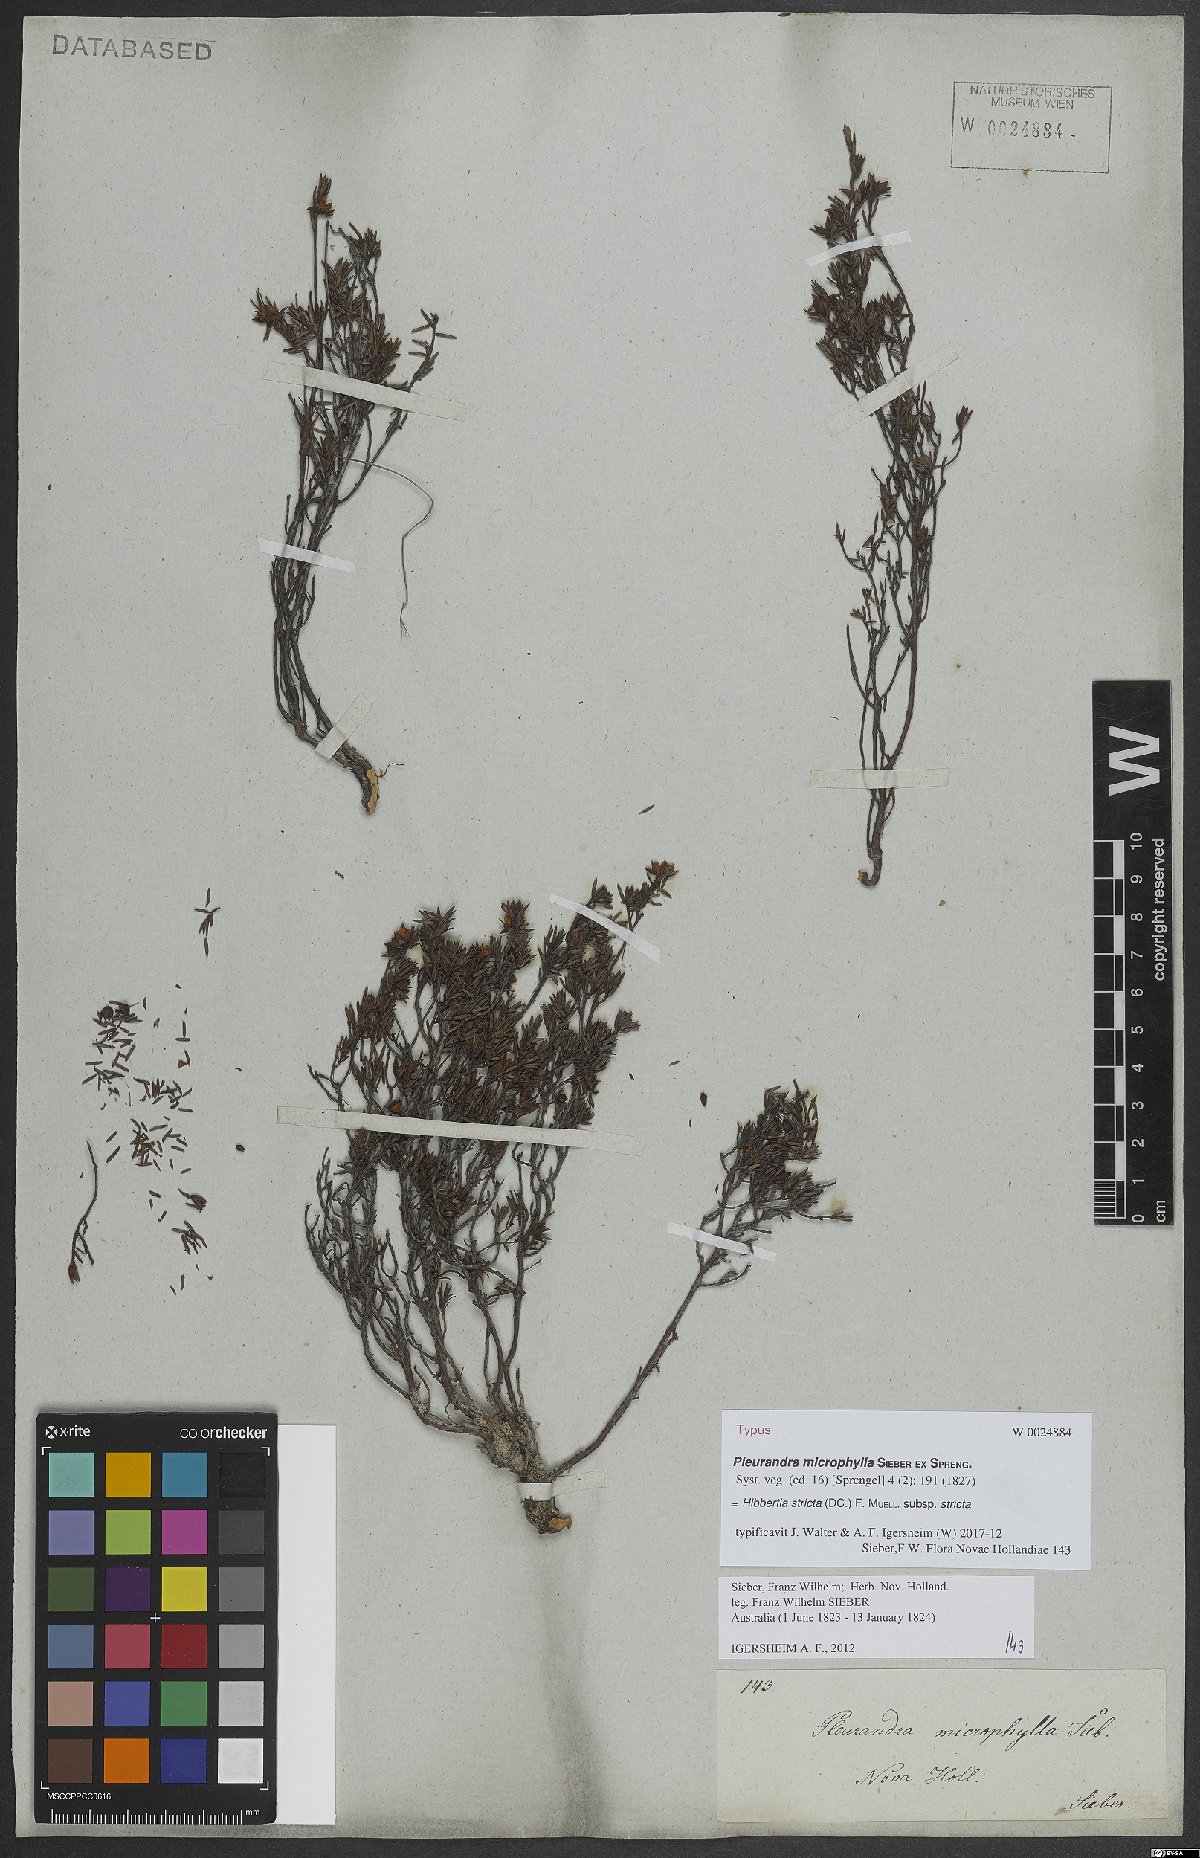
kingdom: Plantae
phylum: Tracheophyta
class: Magnoliopsida
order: Dilleniales
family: Dilleniaceae
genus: Hibbertia
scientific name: Hibbertia stricta
